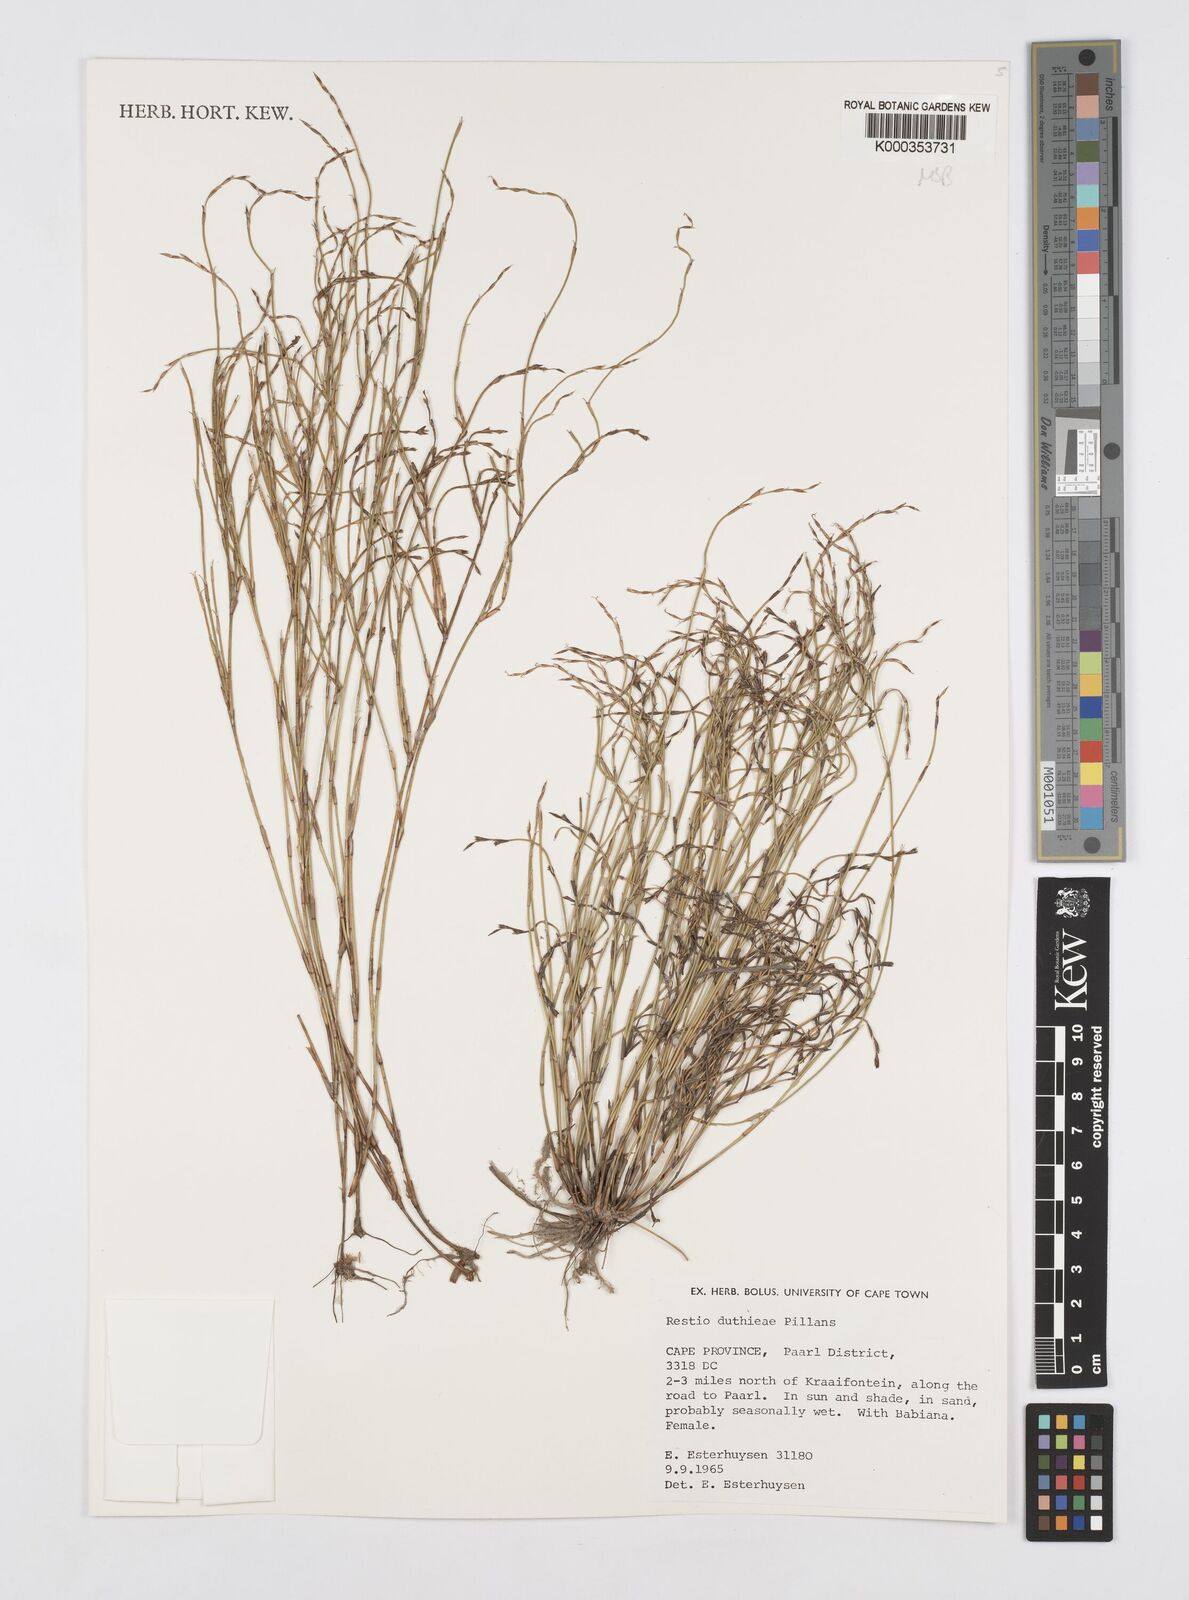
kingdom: Plantae
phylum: Tracheophyta
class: Liliopsida
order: Poales
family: Restionaceae
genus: Restio
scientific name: Restio duthieae
